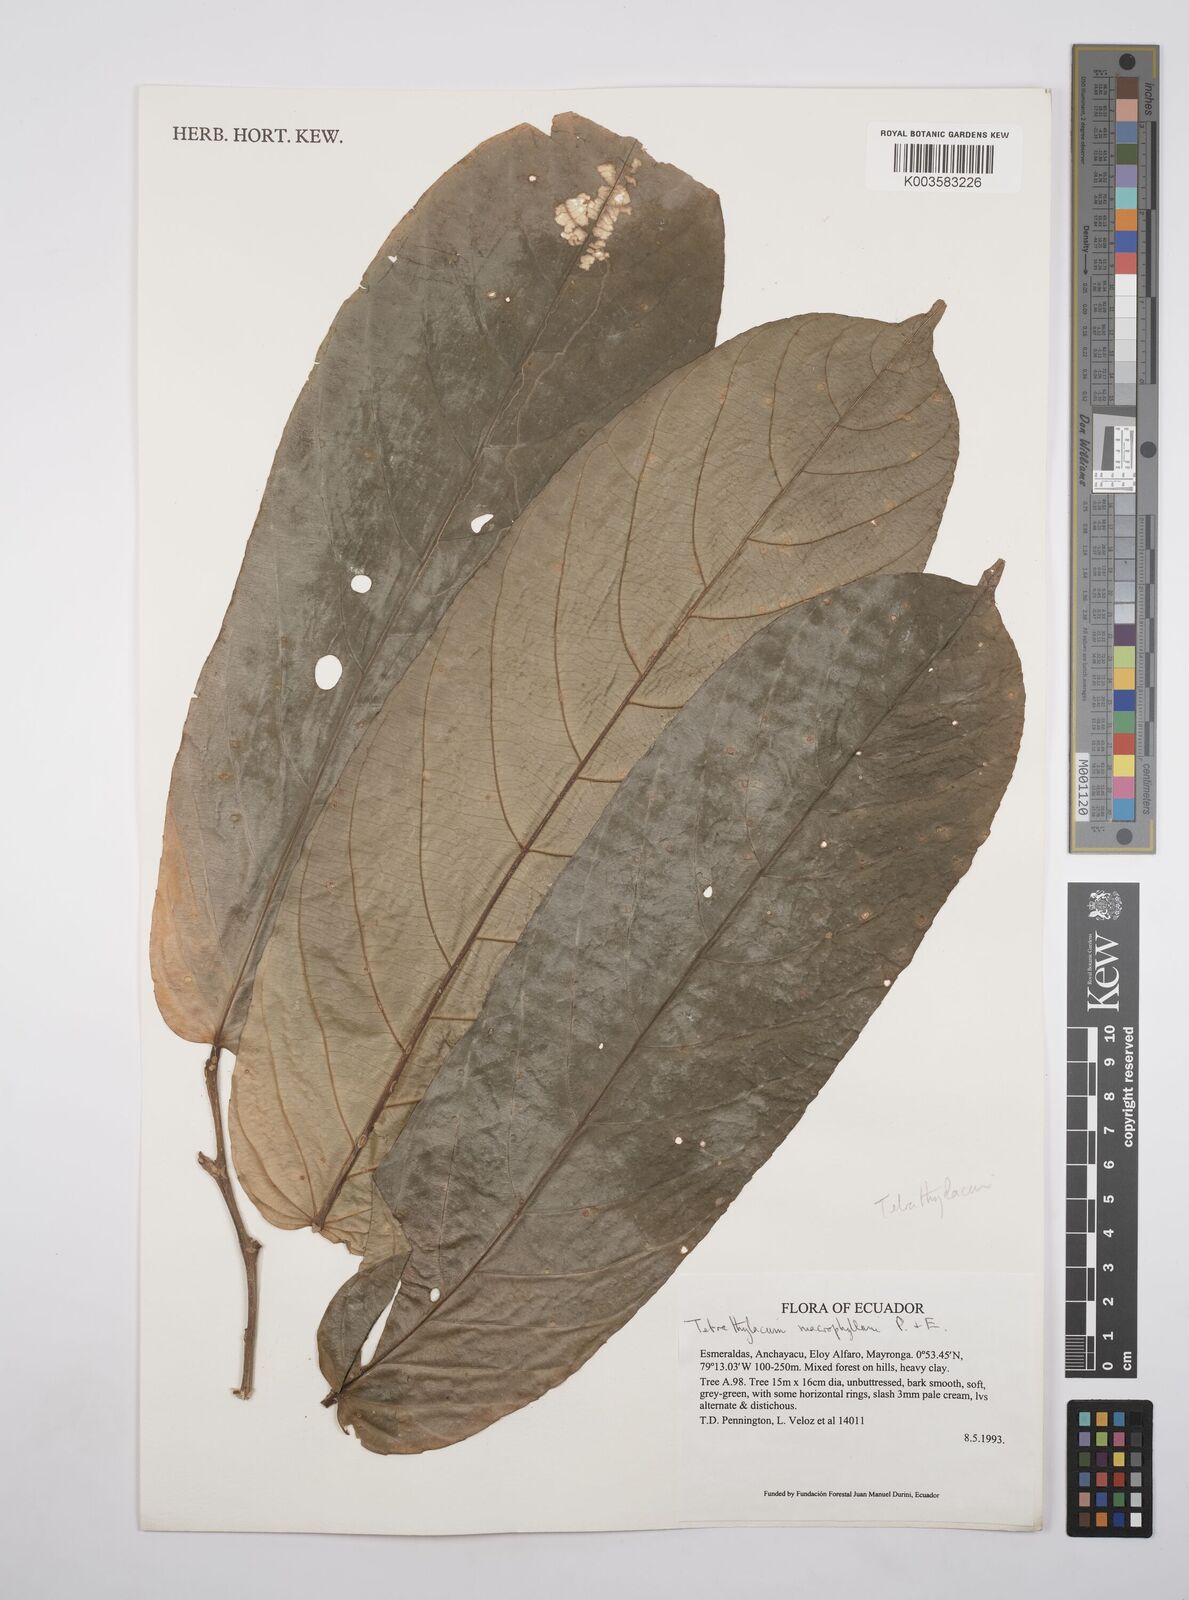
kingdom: Plantae
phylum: Tracheophyta
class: Magnoliopsida
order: Malpighiales
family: Salicaceae
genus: Tetrathylacium
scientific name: Tetrathylacium macrophyllum
